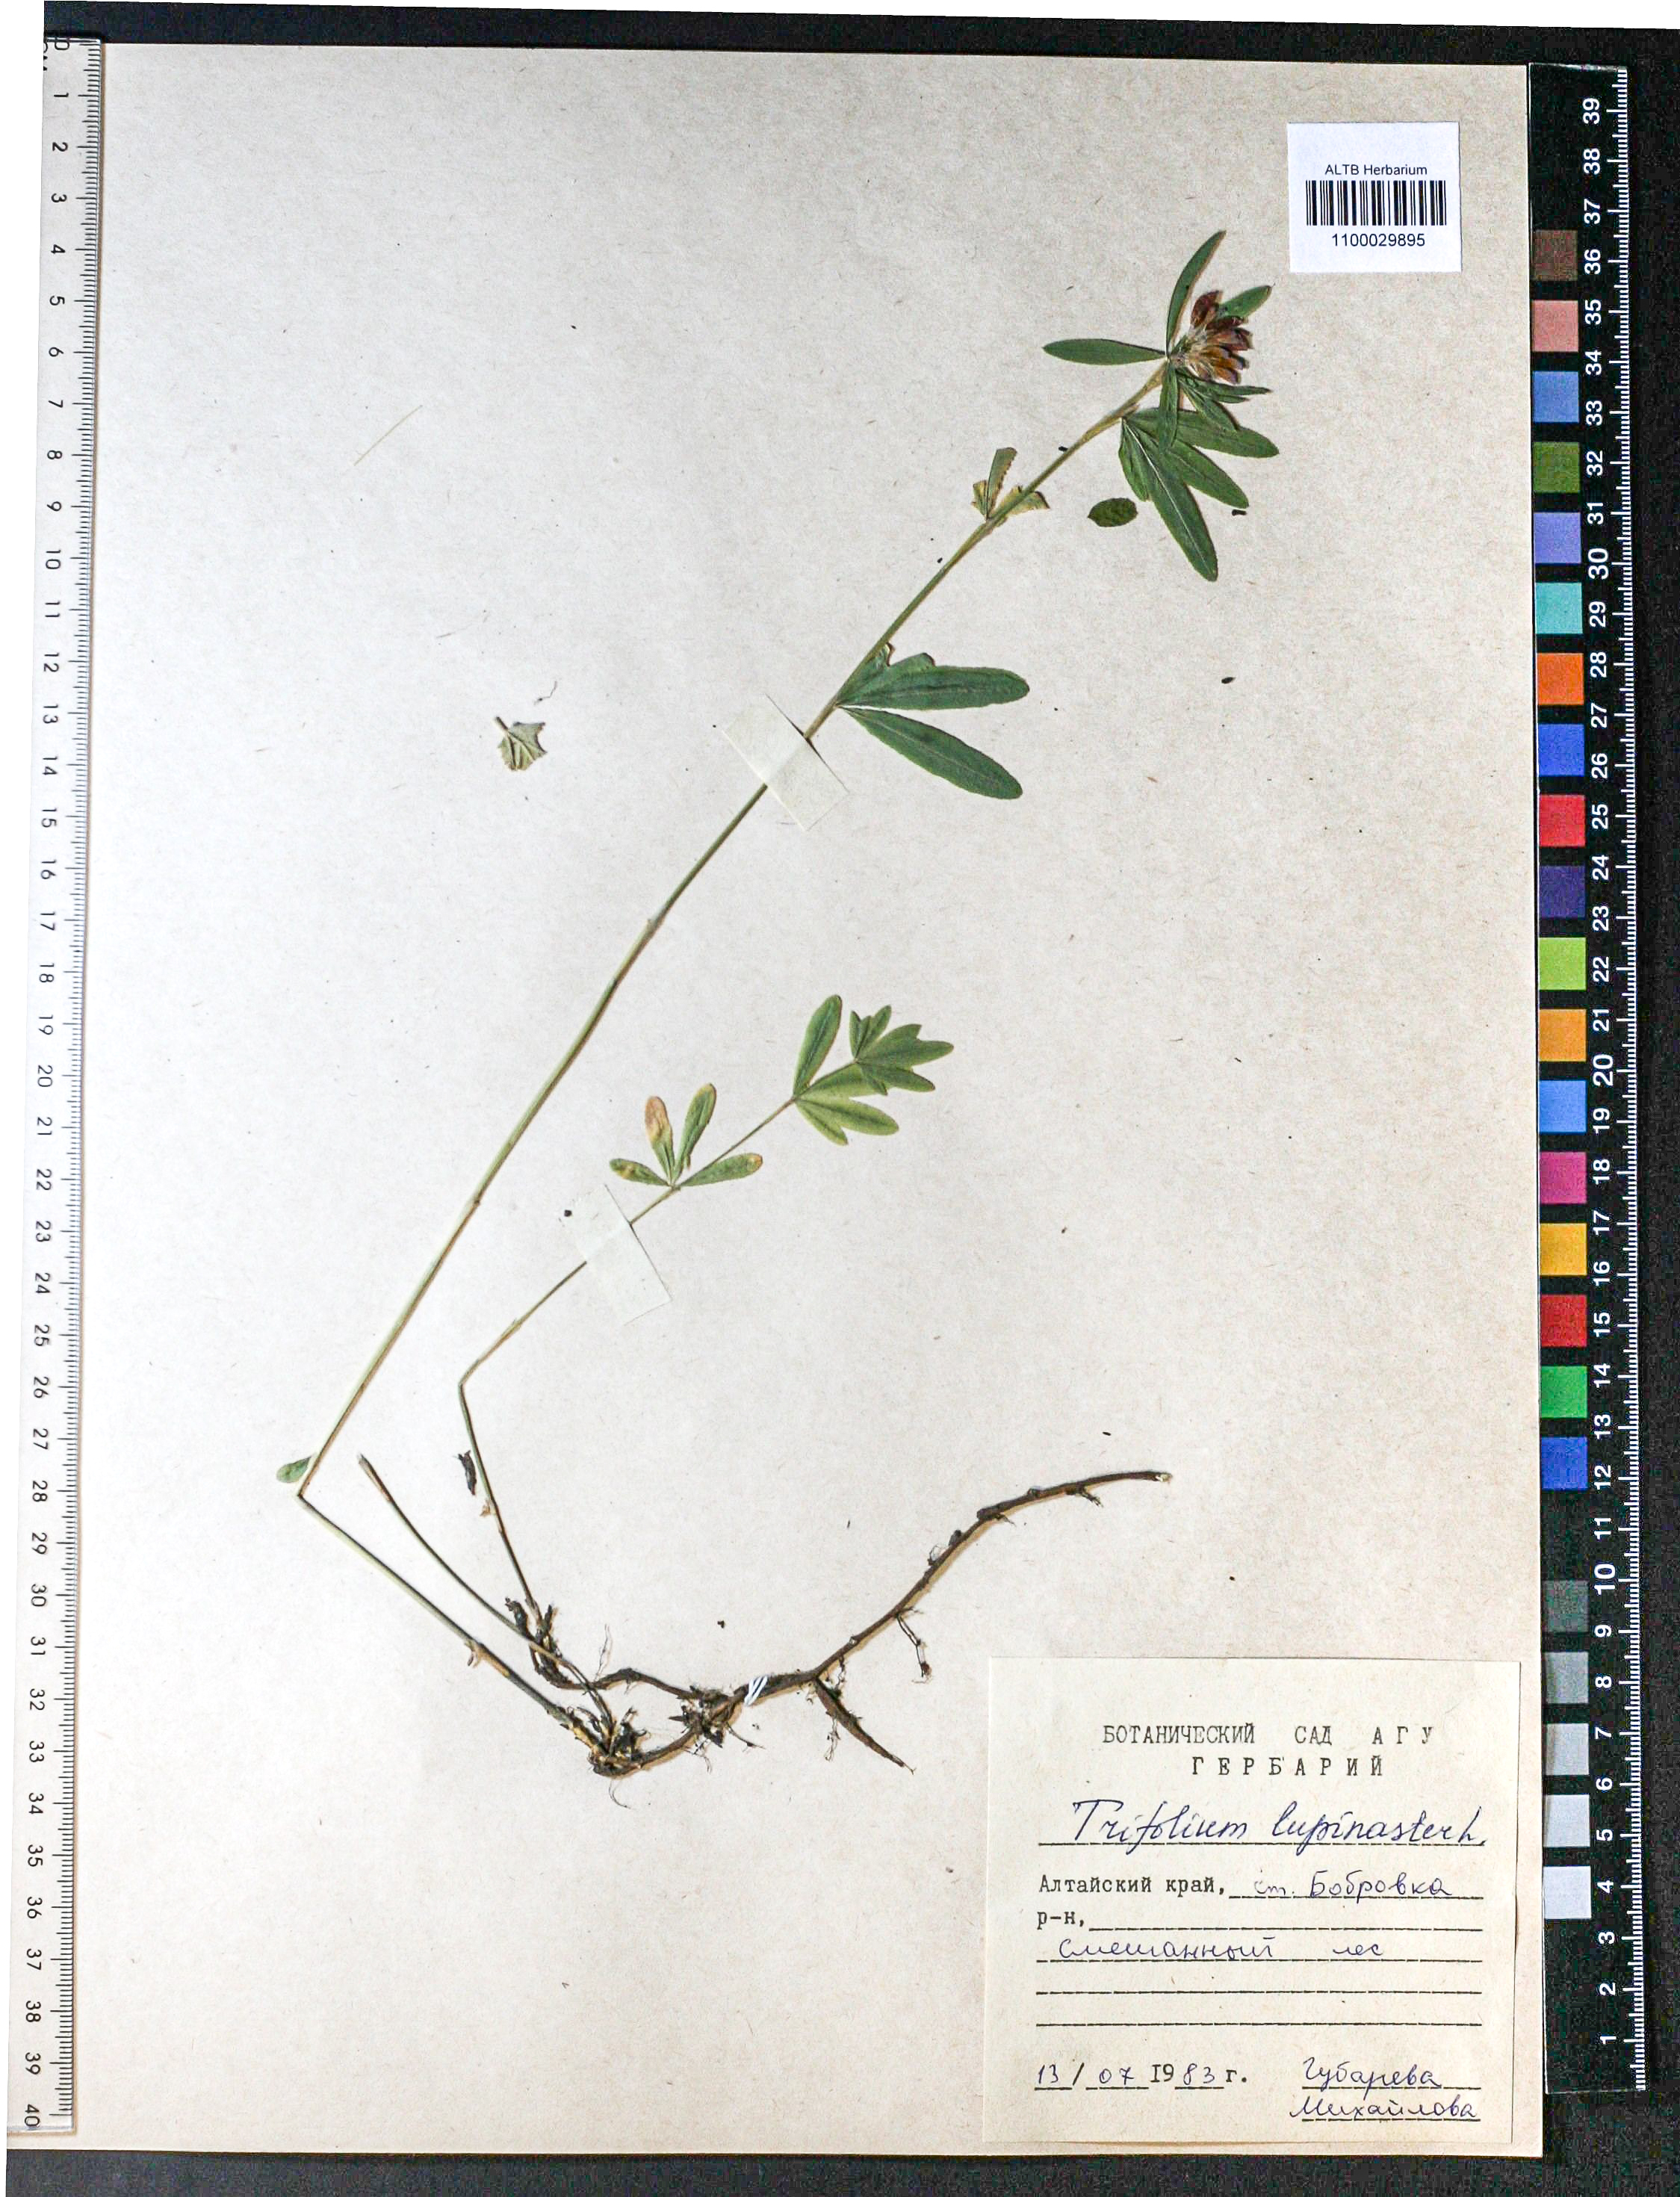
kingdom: Plantae
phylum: Tracheophyta
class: Magnoliopsida
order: Fabales
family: Fabaceae
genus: Trifolium
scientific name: Trifolium lupinaster
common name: Lupine clover
